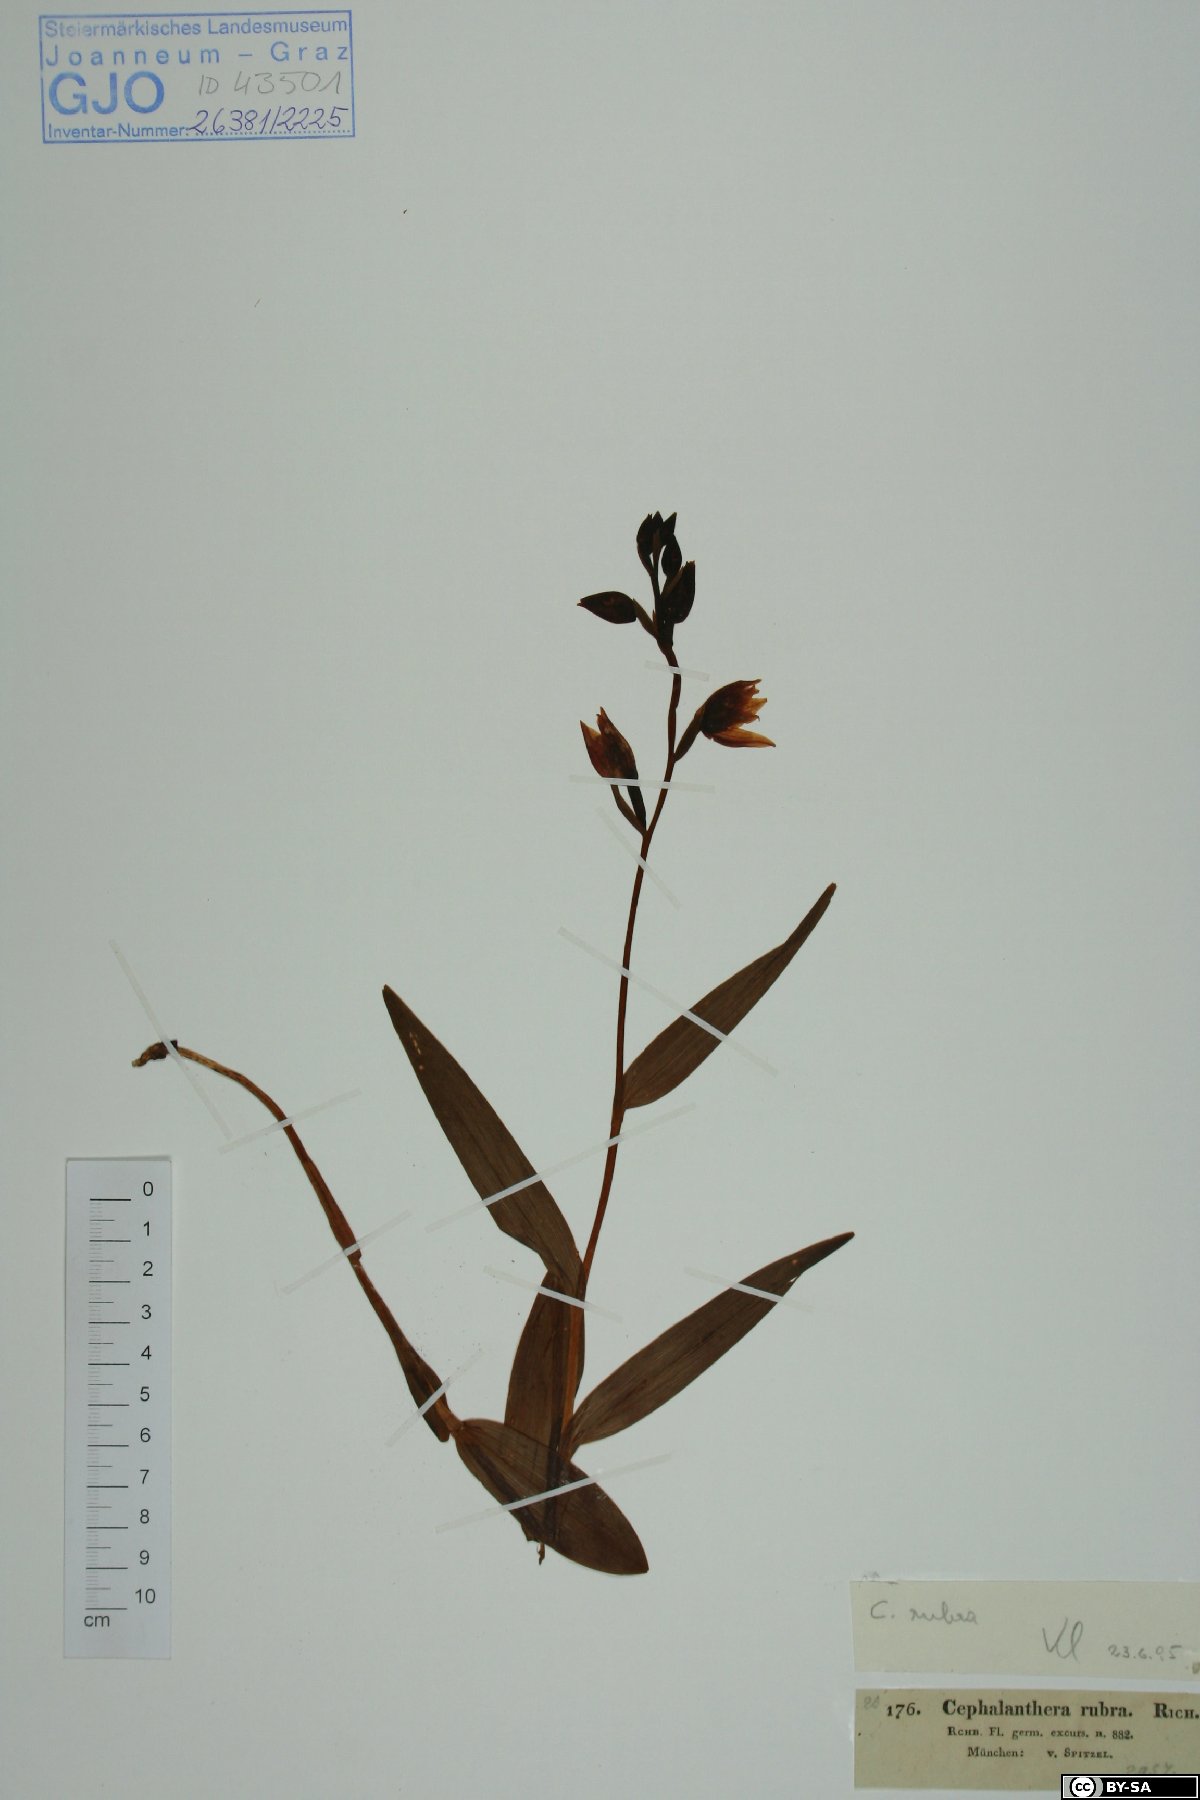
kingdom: Plantae
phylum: Tracheophyta
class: Liliopsida
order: Asparagales
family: Orchidaceae
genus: Cephalanthera
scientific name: Cephalanthera rubra
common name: Red helleborine
